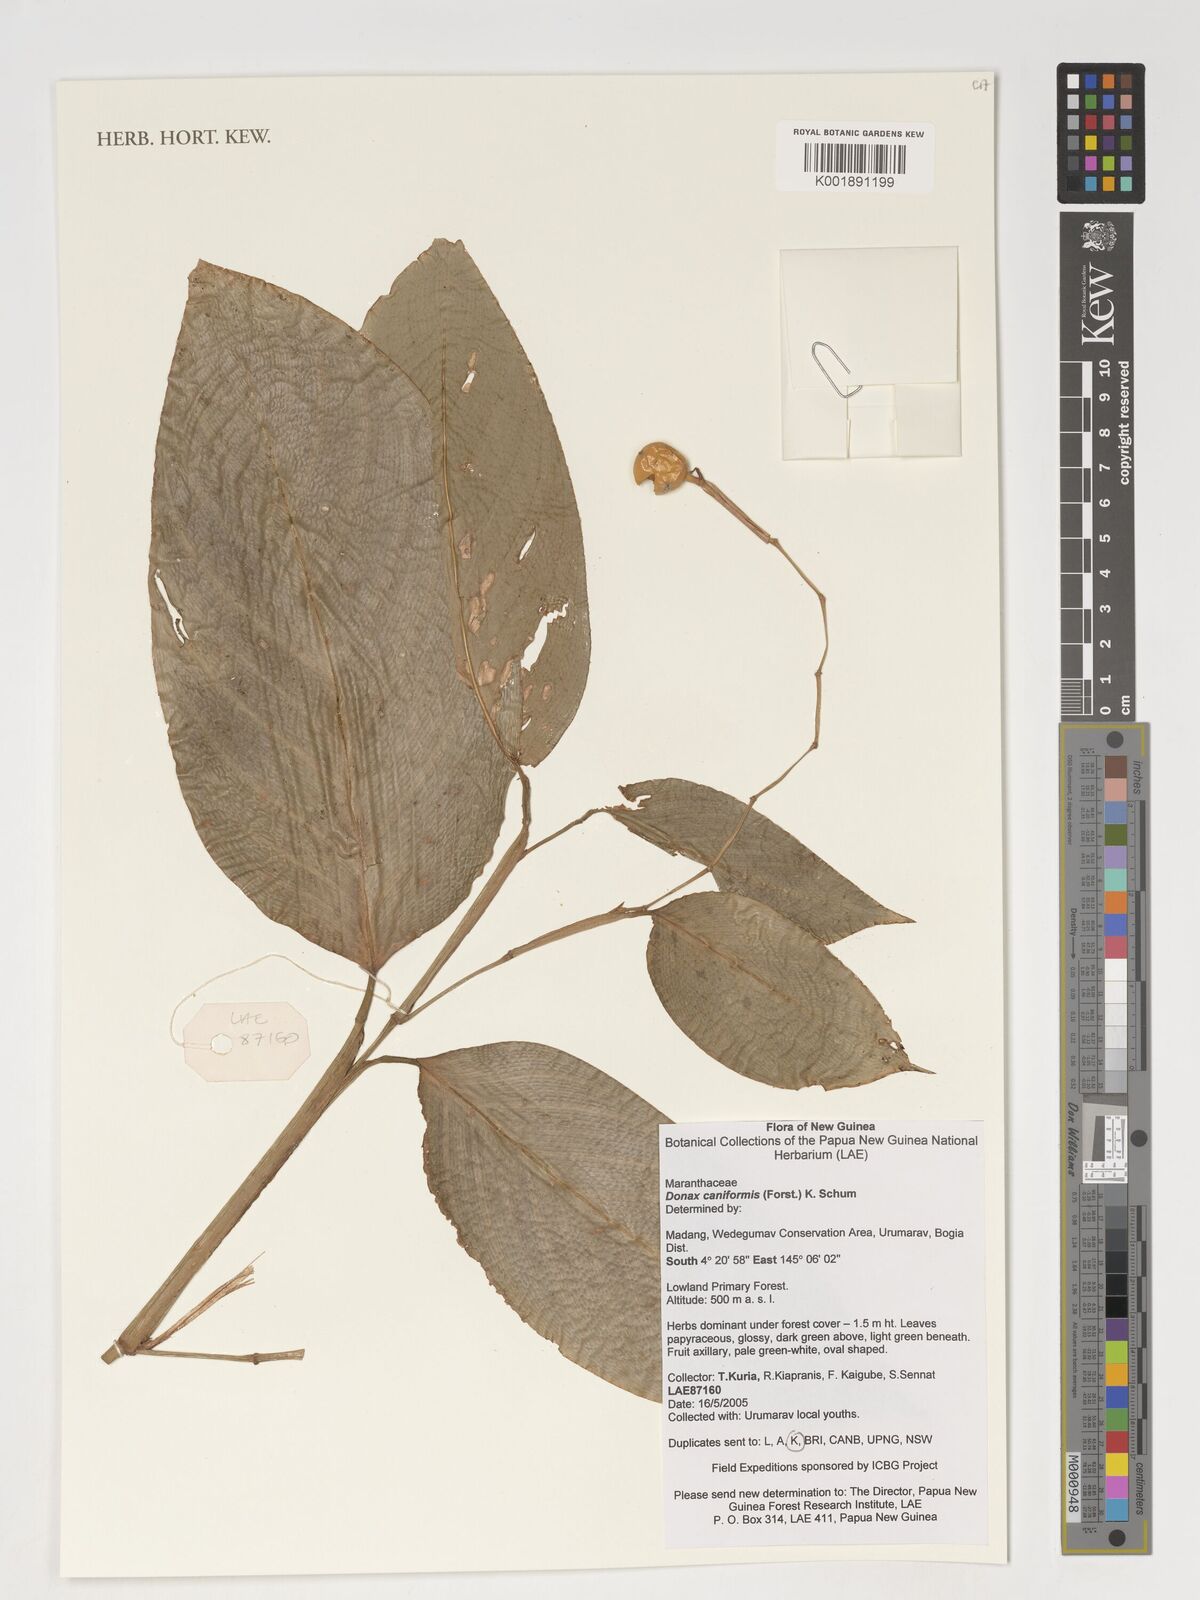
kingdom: Plantae
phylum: Tracheophyta
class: Liliopsida
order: Zingiberales
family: Marantaceae
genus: Donax
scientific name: Donax canniformis
